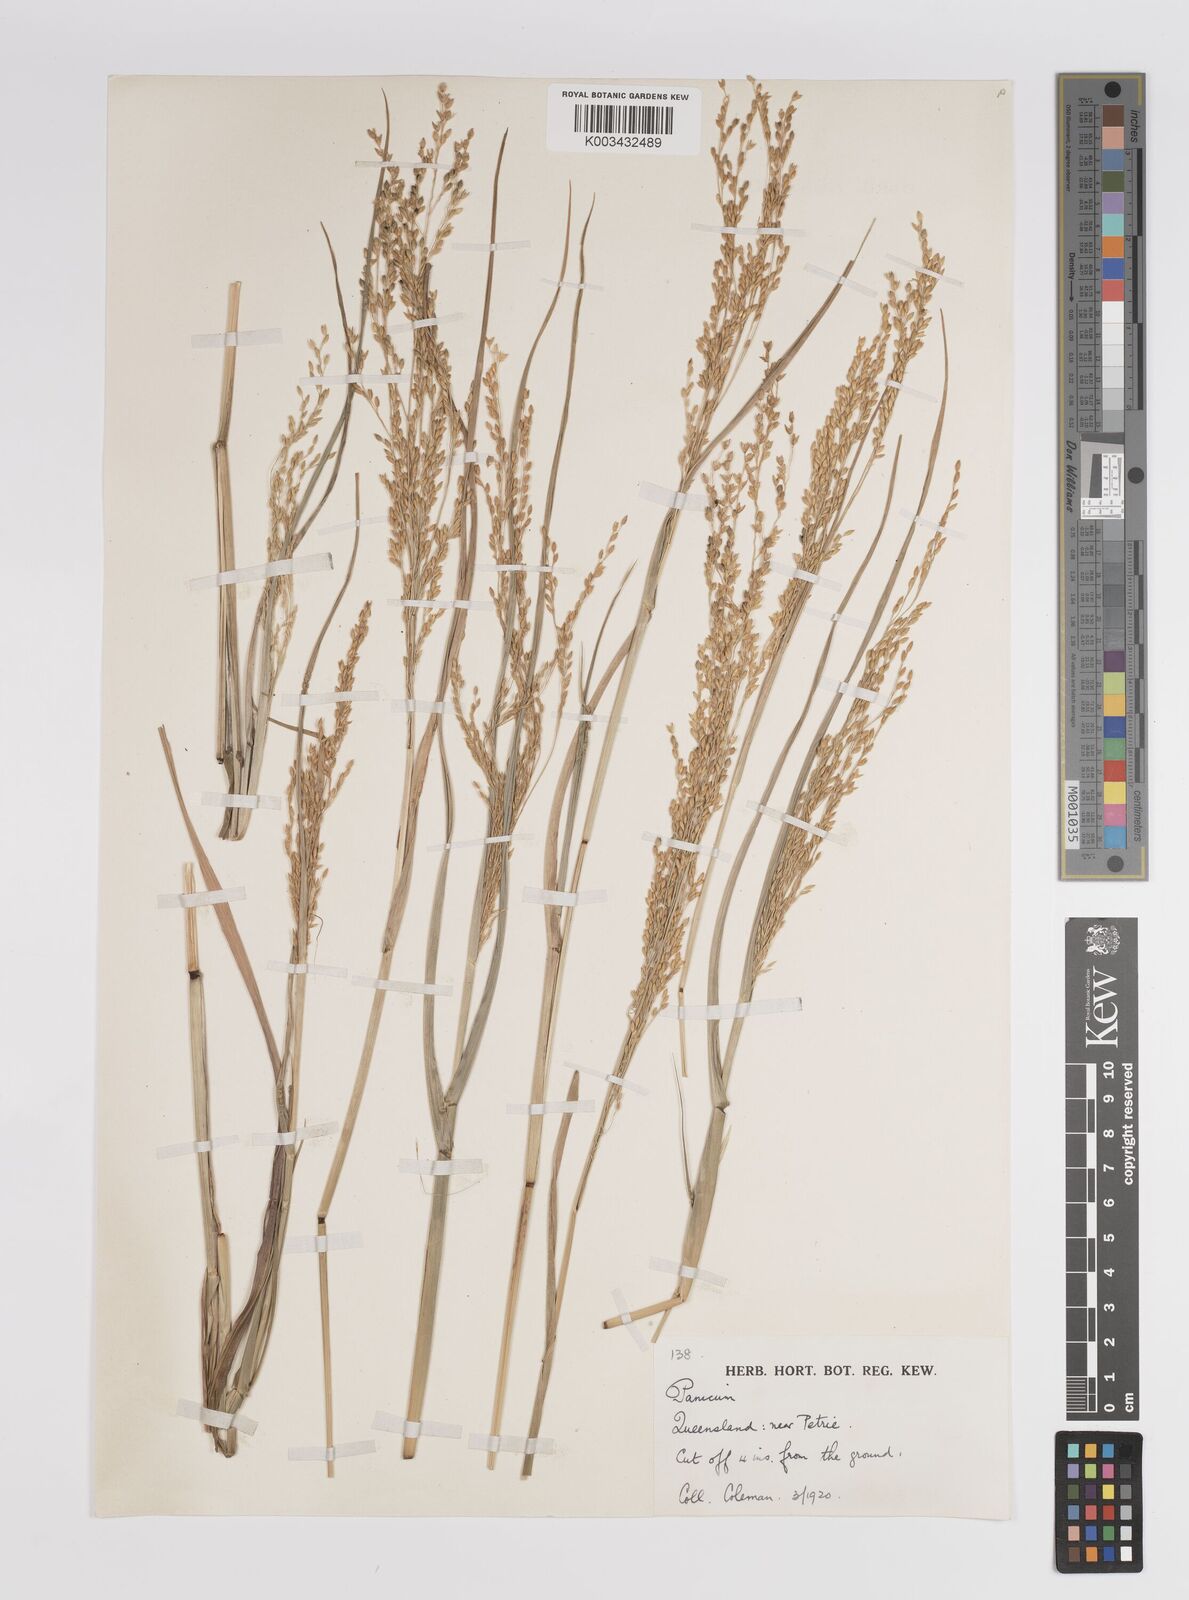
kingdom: Plantae
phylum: Tracheophyta
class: Liliopsida
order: Poales
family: Poaceae
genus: Panicum
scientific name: Panicum sumatrense
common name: Little millet
